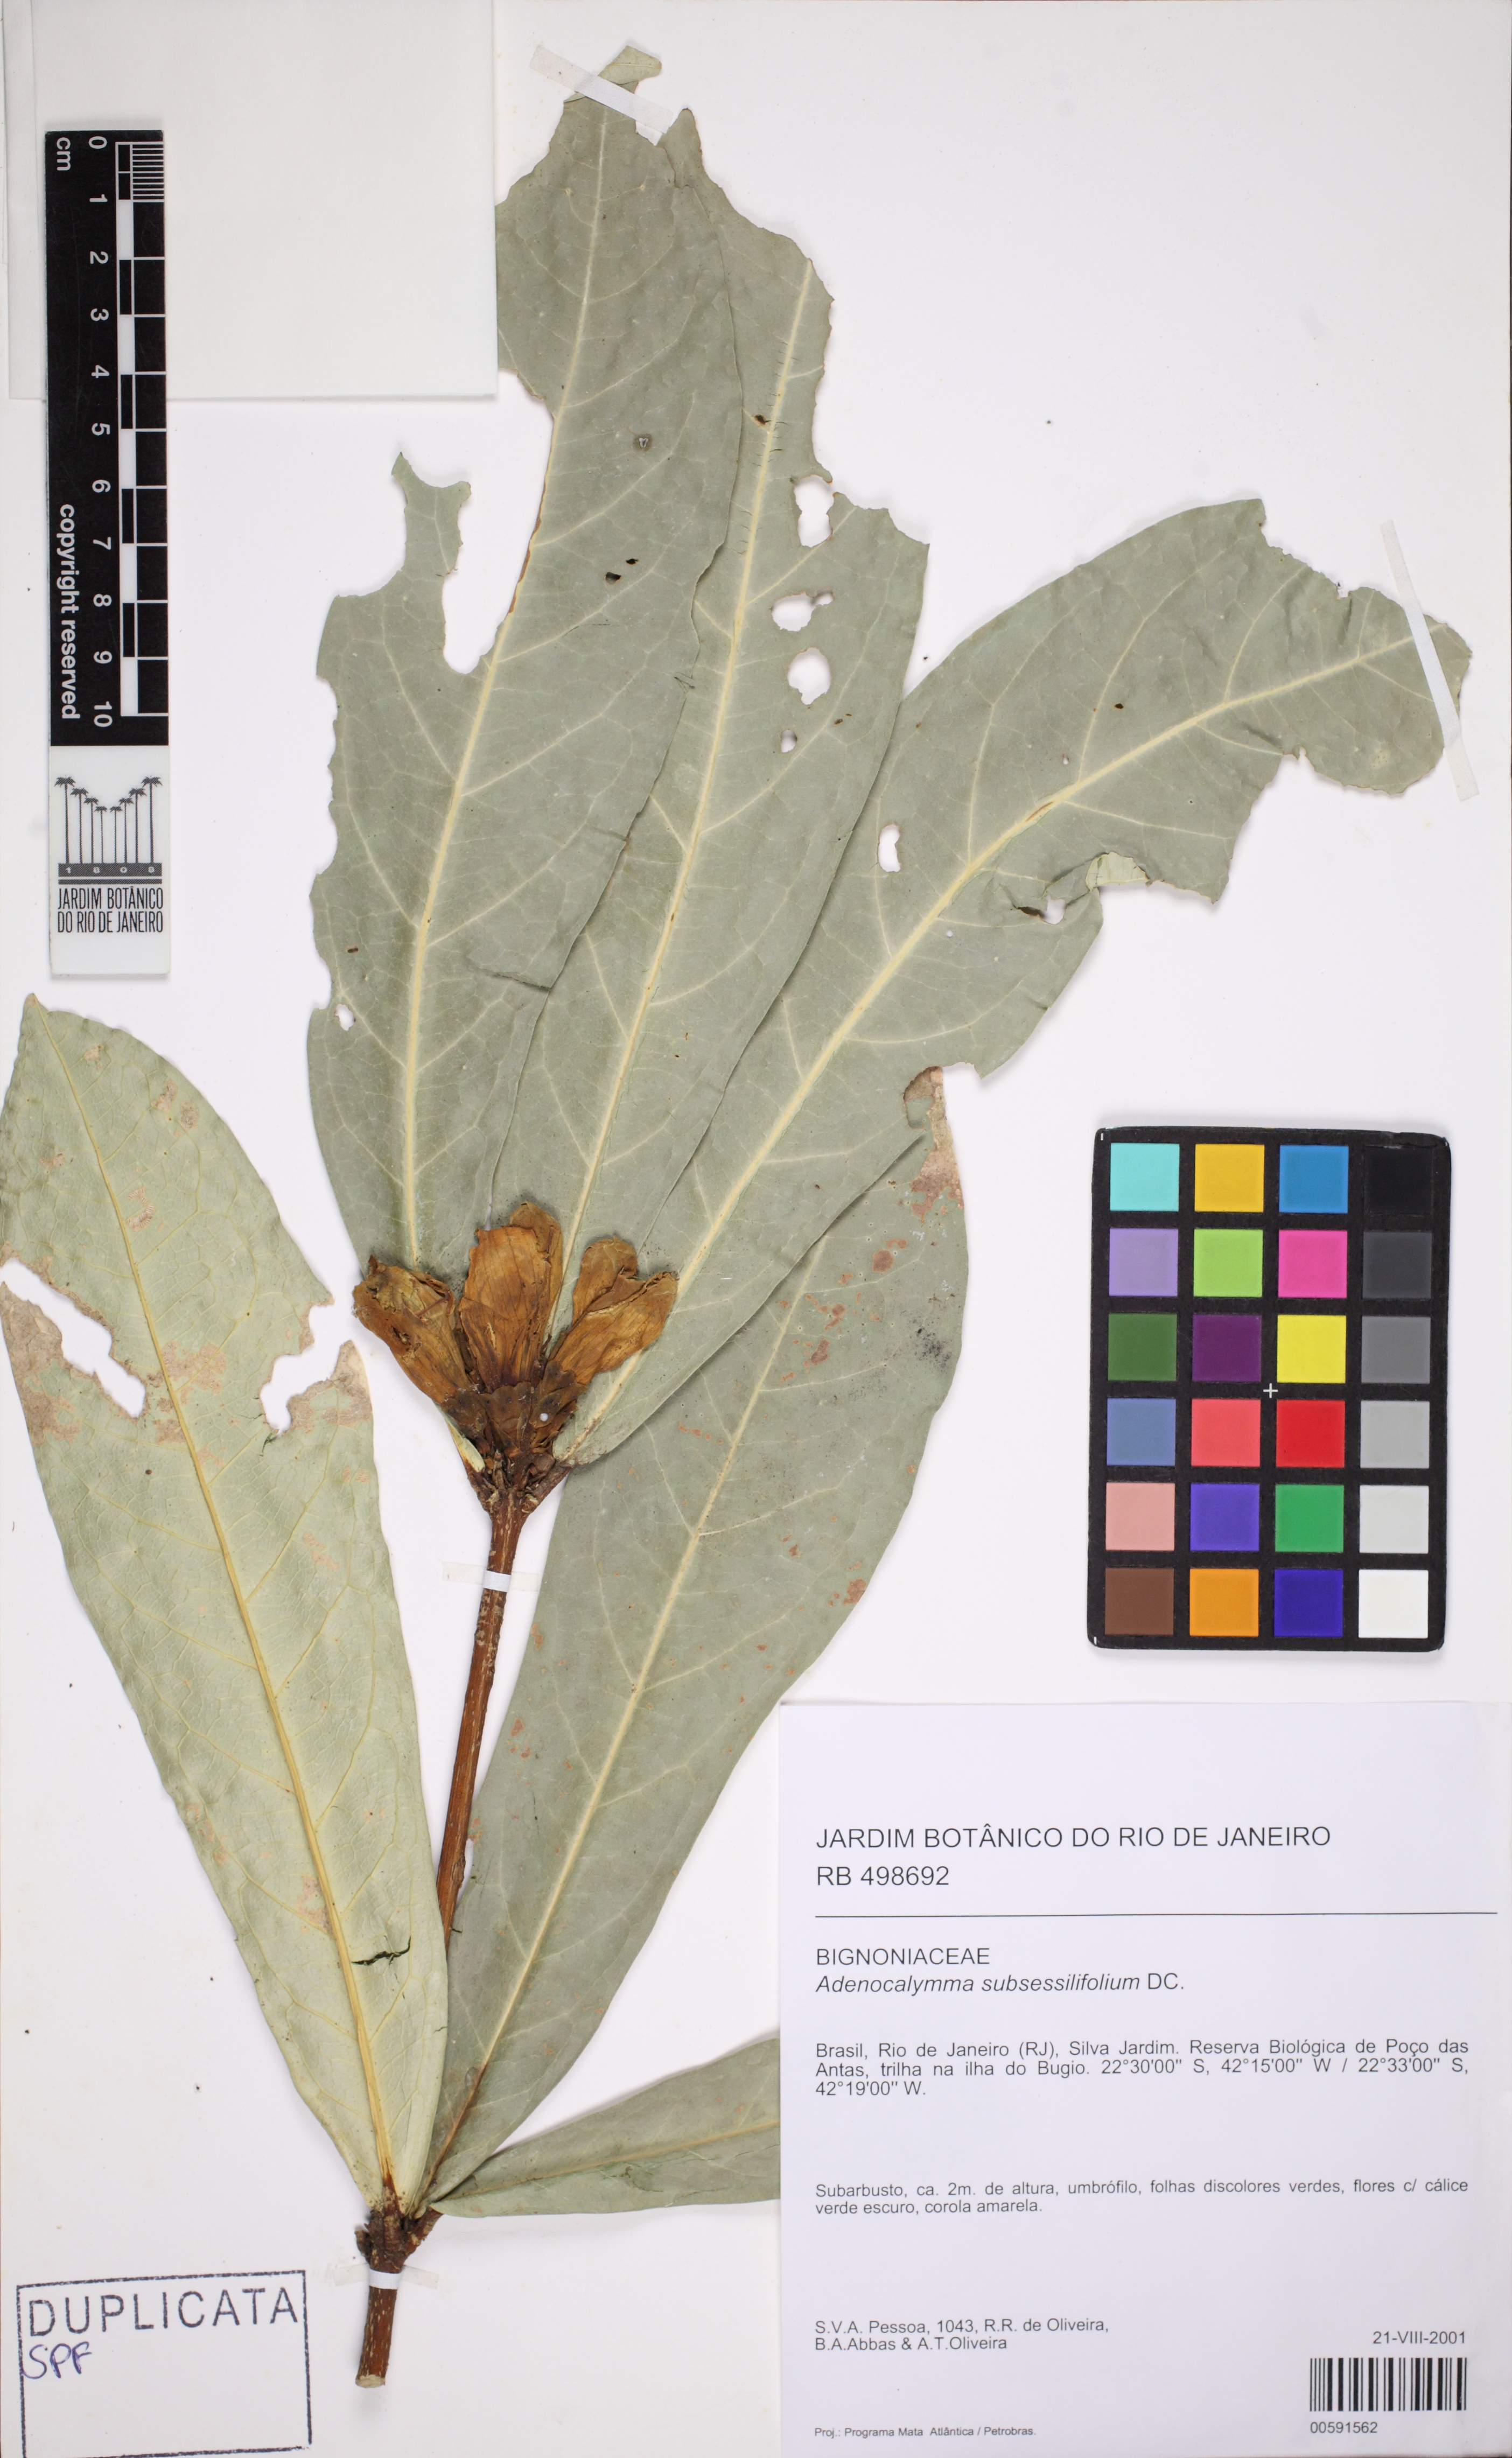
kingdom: Plantae
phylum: Tracheophyta
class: Magnoliopsida
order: Lamiales
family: Bignoniaceae
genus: Adenocalymma
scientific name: Adenocalymma subsessilifolium
